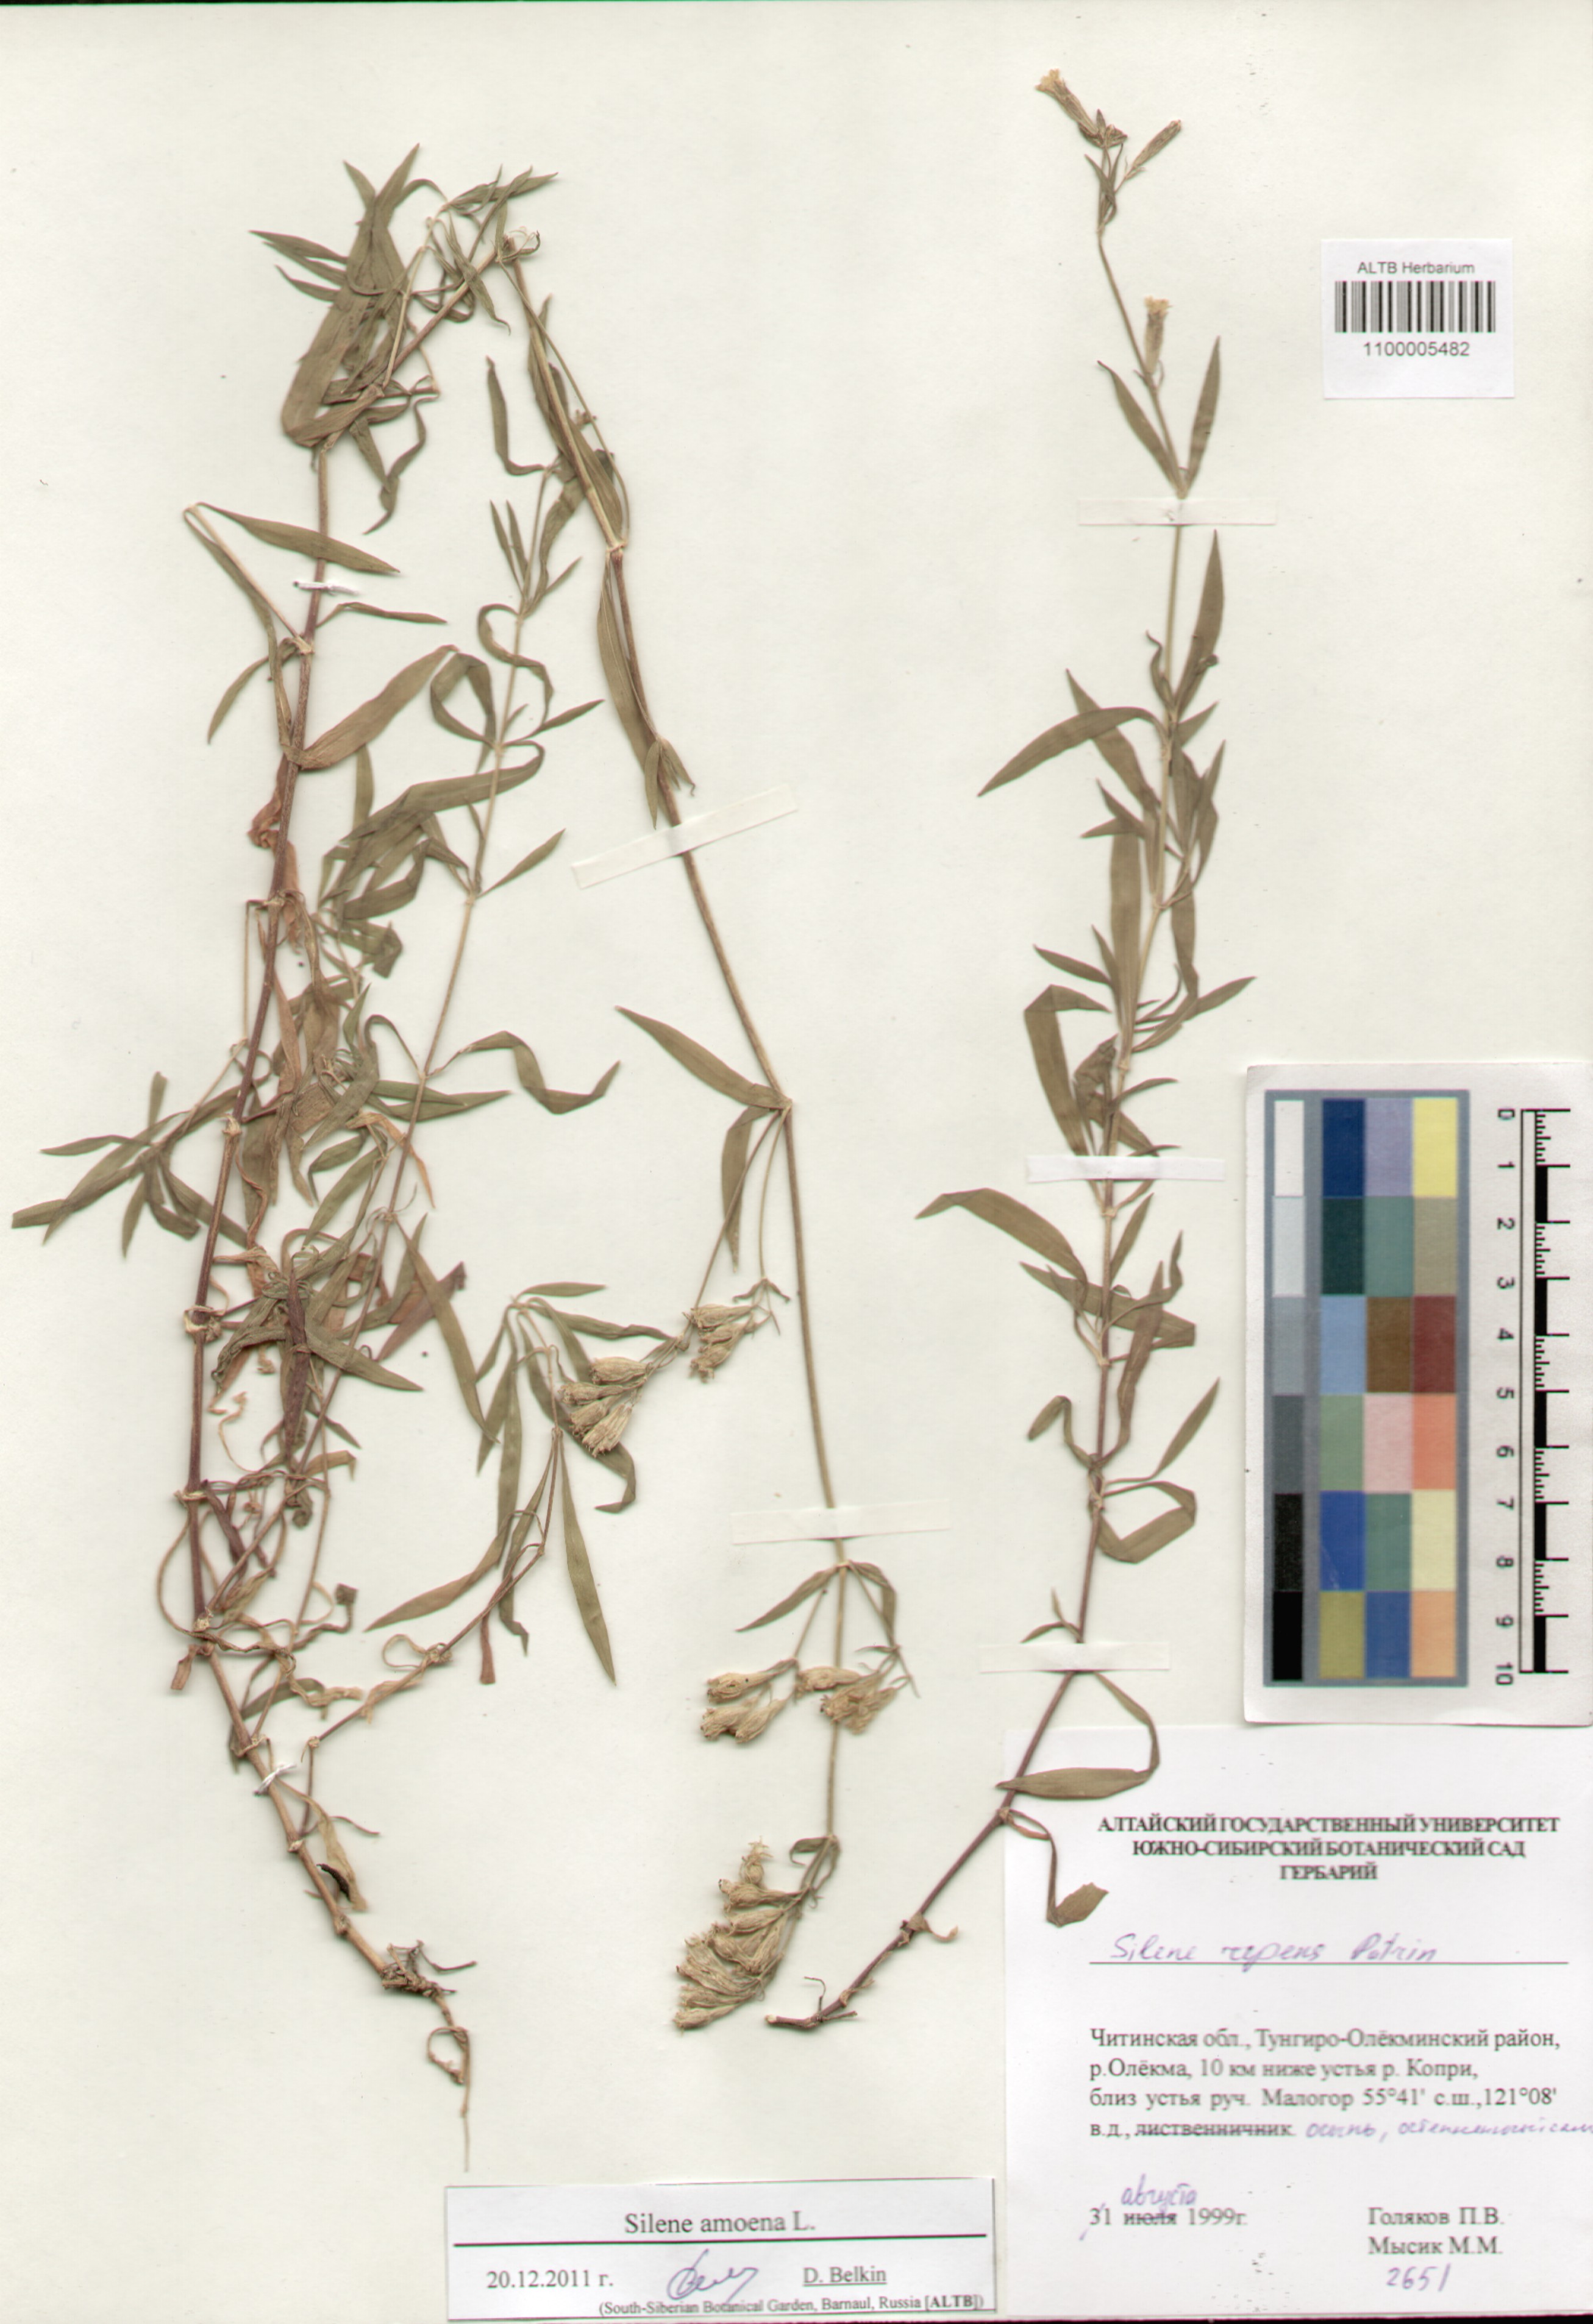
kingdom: Plantae
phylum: Tracheophyta
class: Magnoliopsida
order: Caryophyllales
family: Caryophyllaceae
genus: Silene
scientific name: Silene amoena
